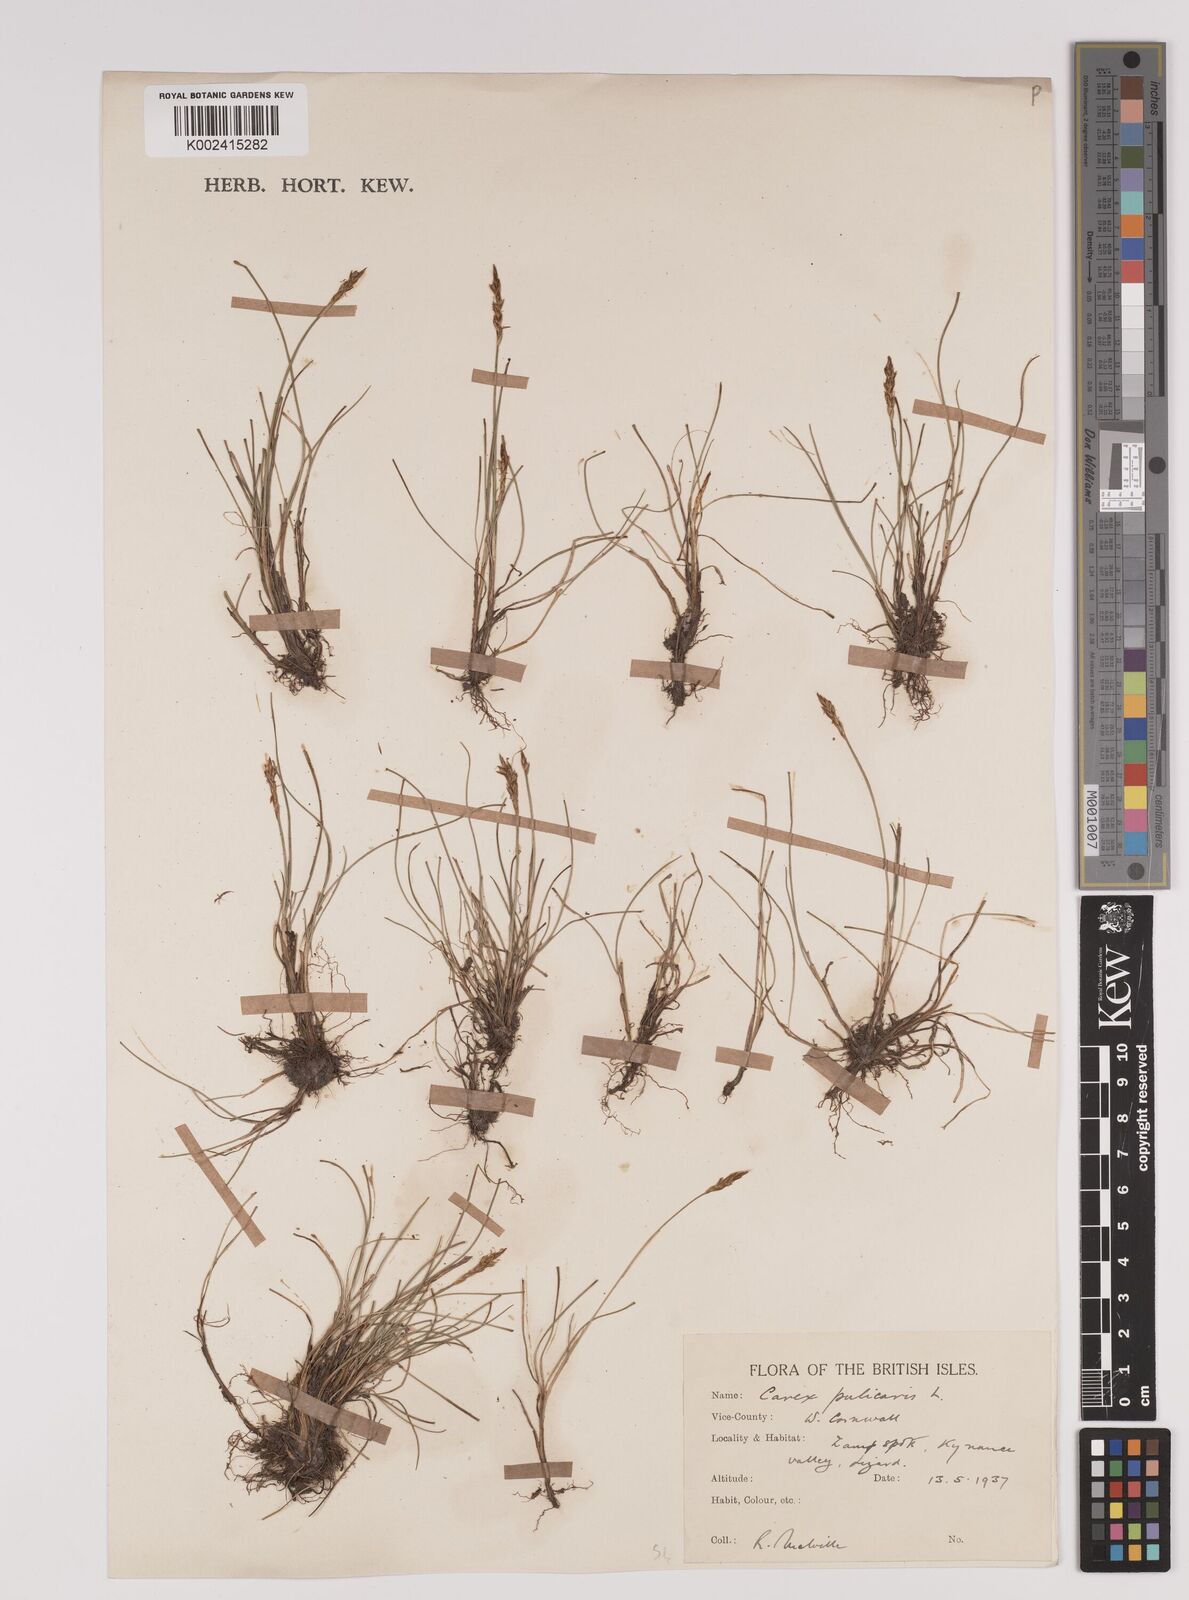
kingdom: Plantae
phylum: Tracheophyta
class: Liliopsida
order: Poales
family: Cyperaceae
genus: Carex
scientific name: Carex pulicaris
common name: Flea sedge
